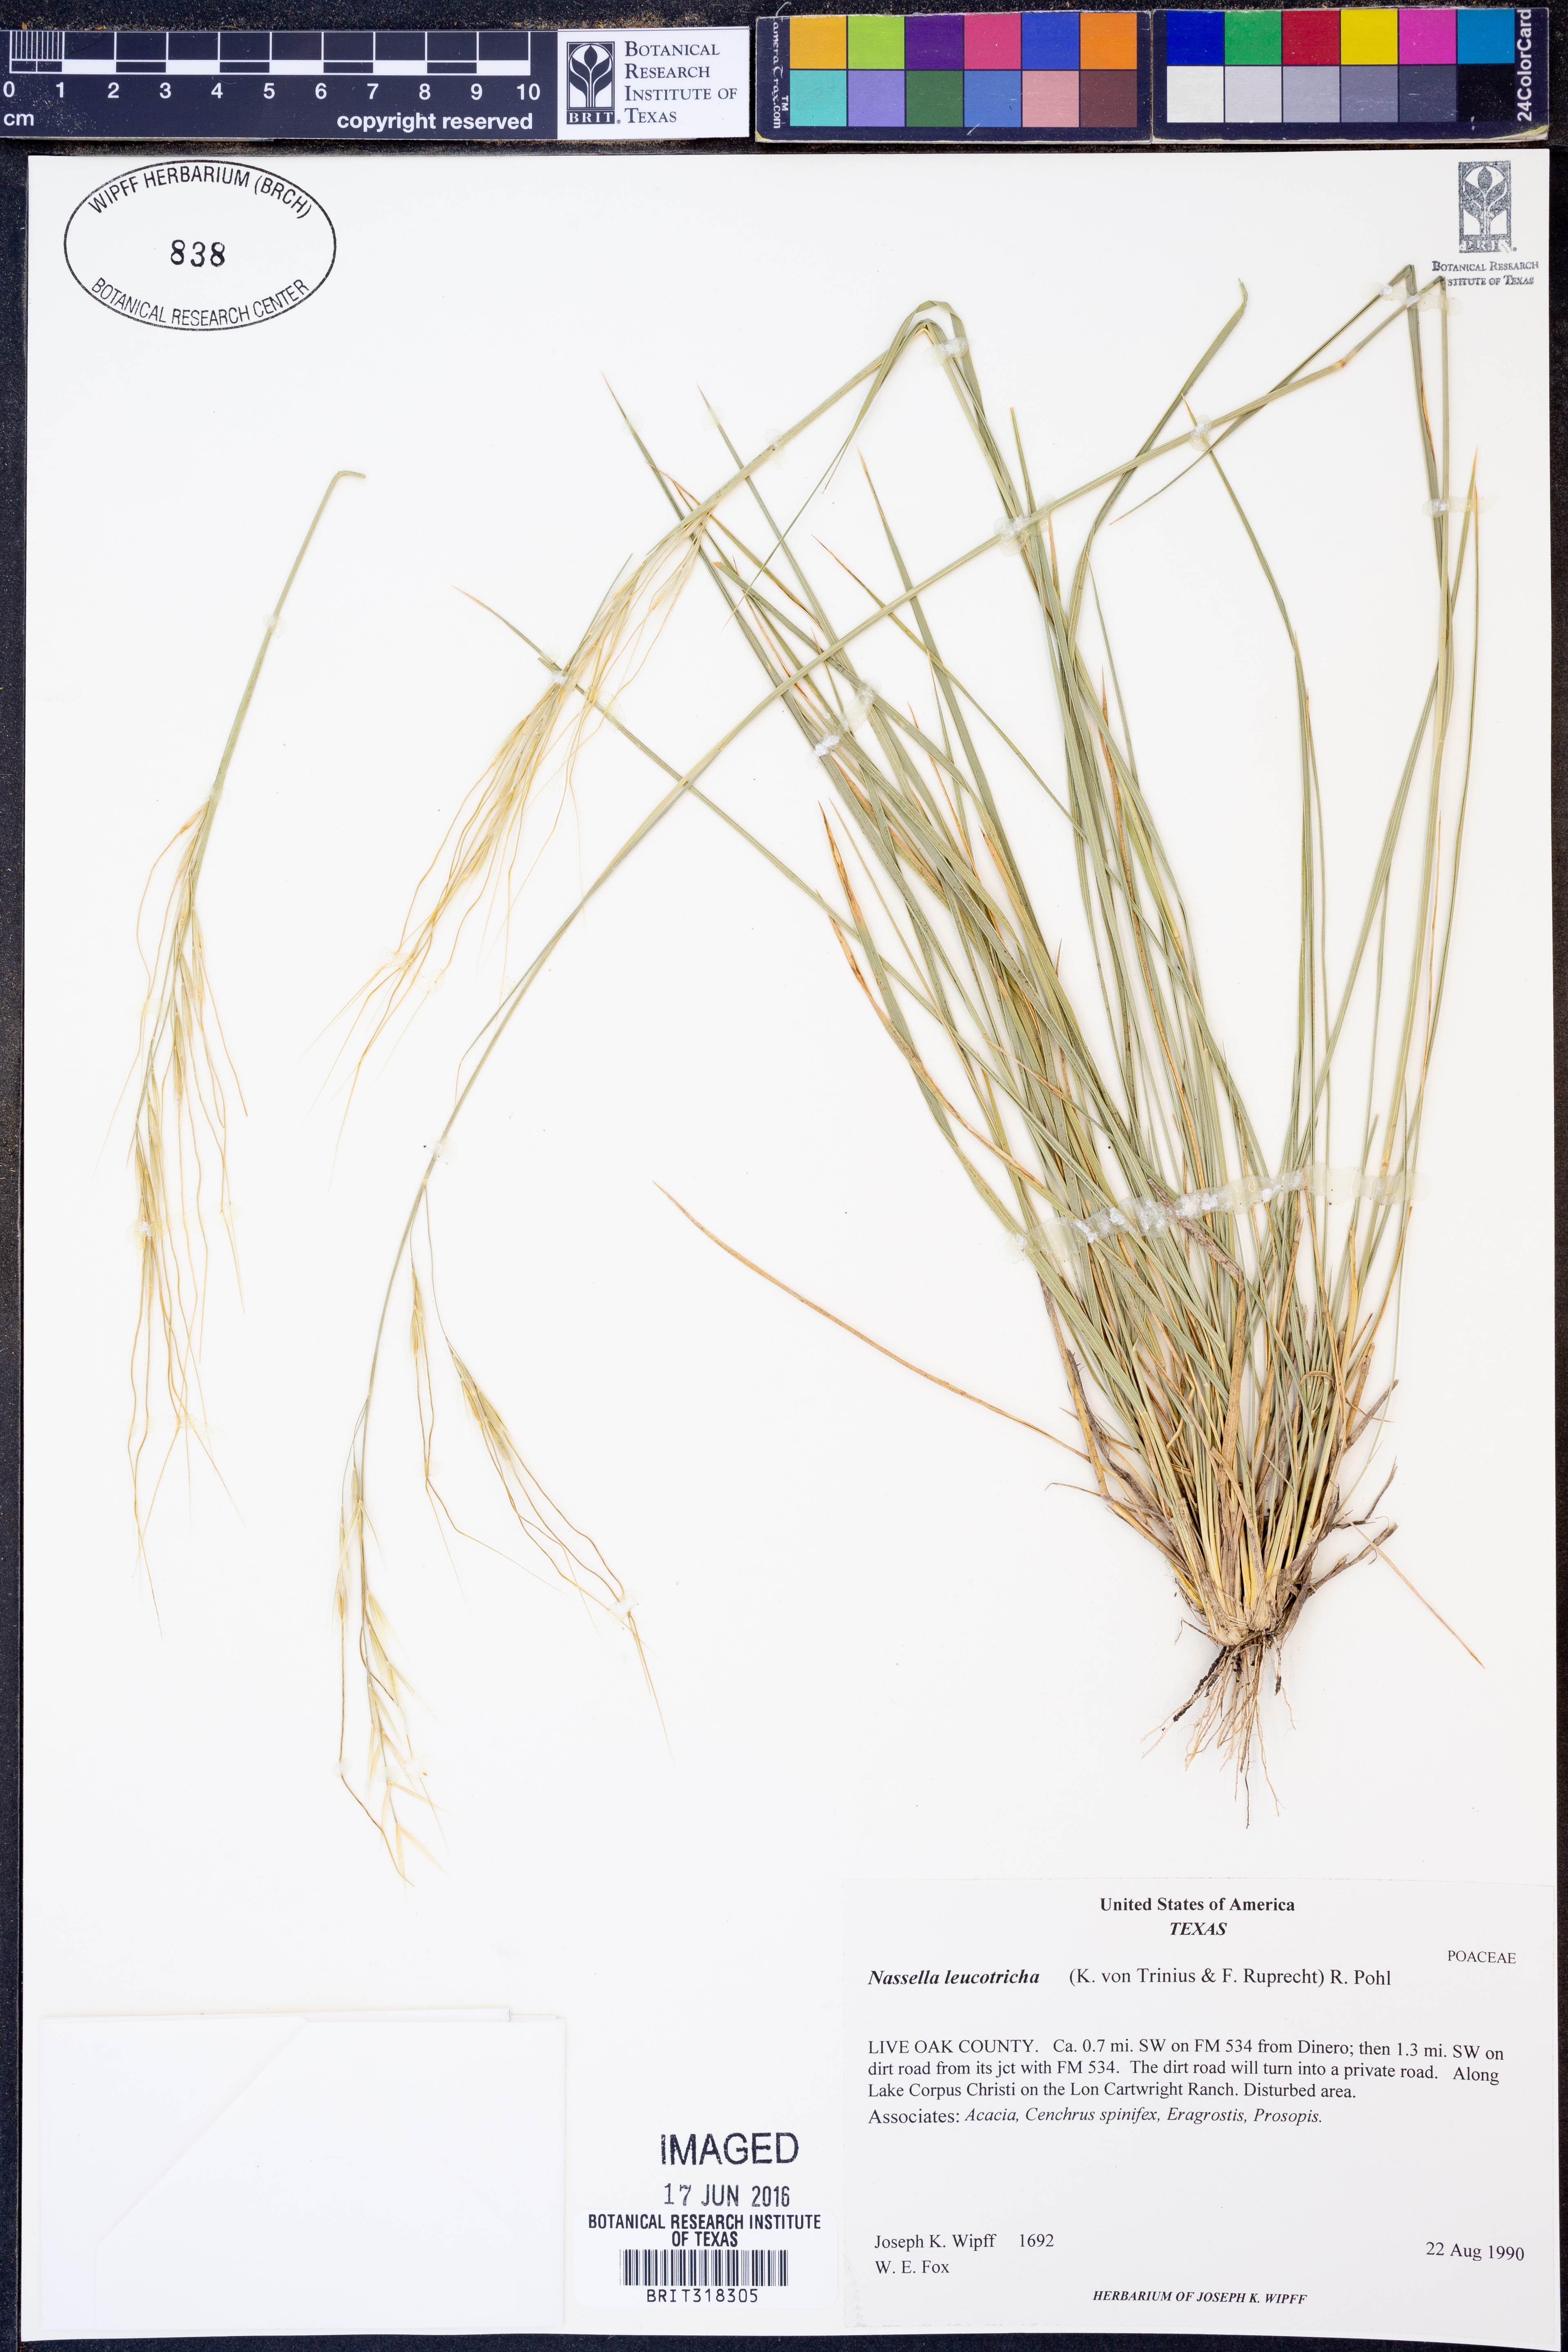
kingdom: Plantae
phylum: Tracheophyta
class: Liliopsida
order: Poales
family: Poaceae
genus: Nassella
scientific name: Nassella leucotricha
